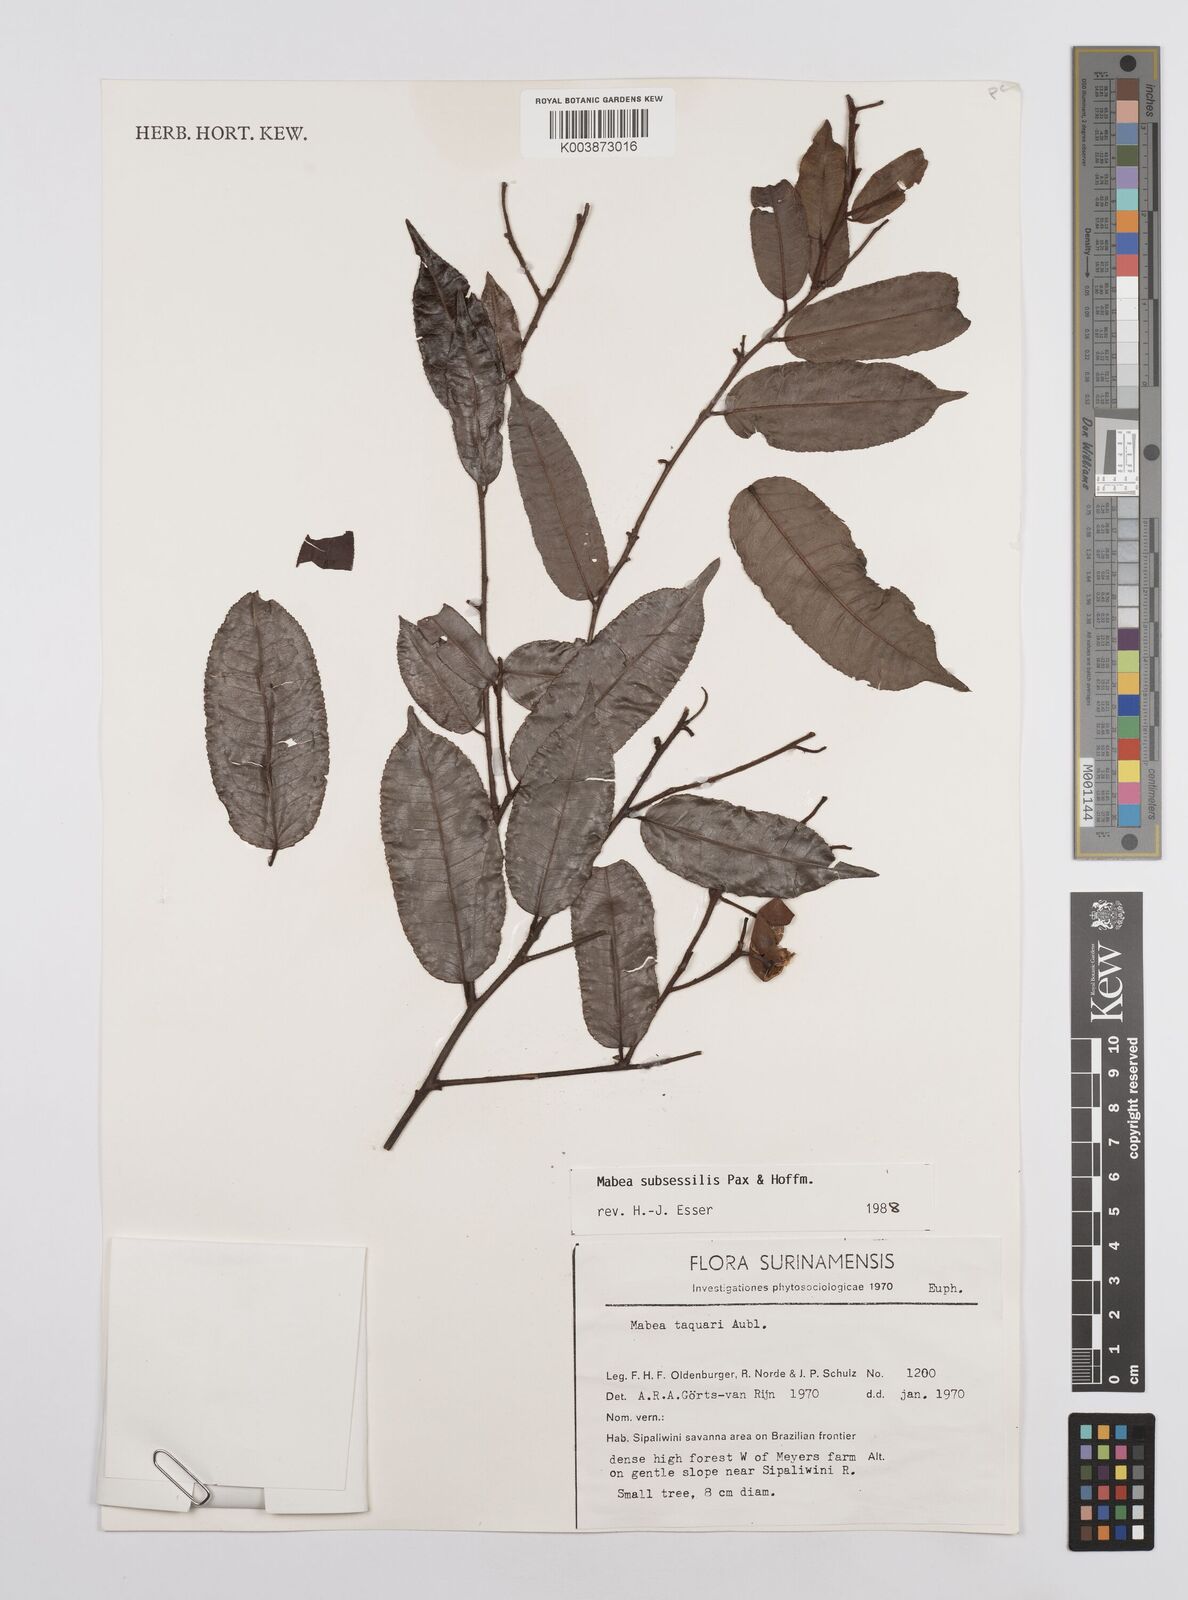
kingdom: Plantae
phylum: Tracheophyta
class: Magnoliopsida
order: Malpighiales
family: Euphorbiaceae
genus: Mabea
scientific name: Mabea subsessilis
